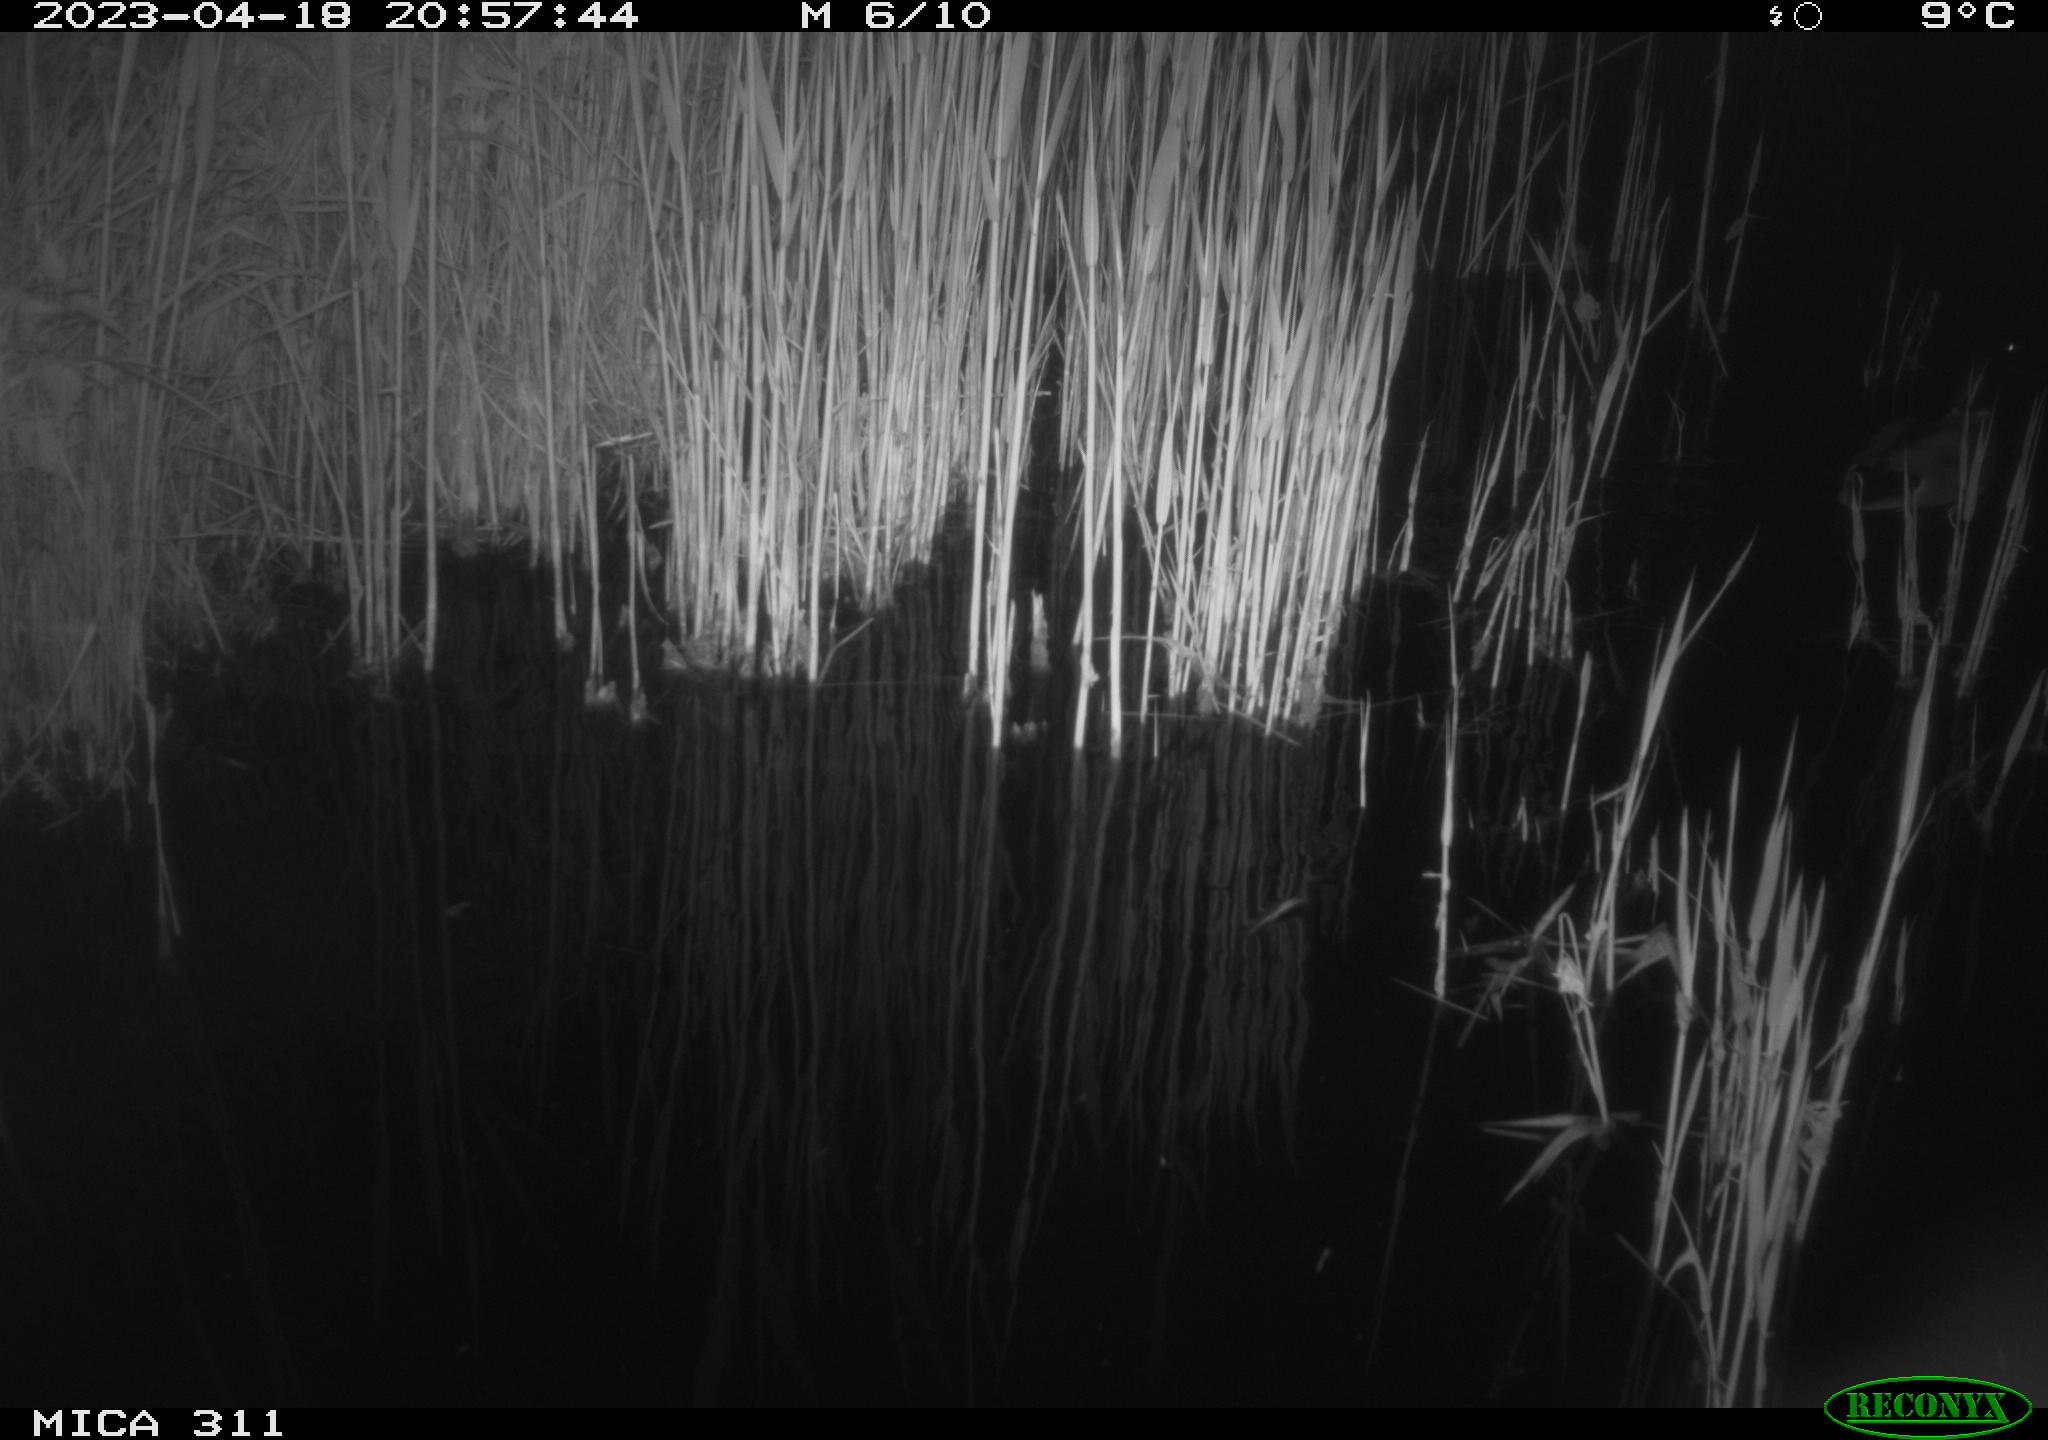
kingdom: Animalia
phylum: Chordata
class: Aves
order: Anseriformes
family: Anatidae
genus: Anas
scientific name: Anas
